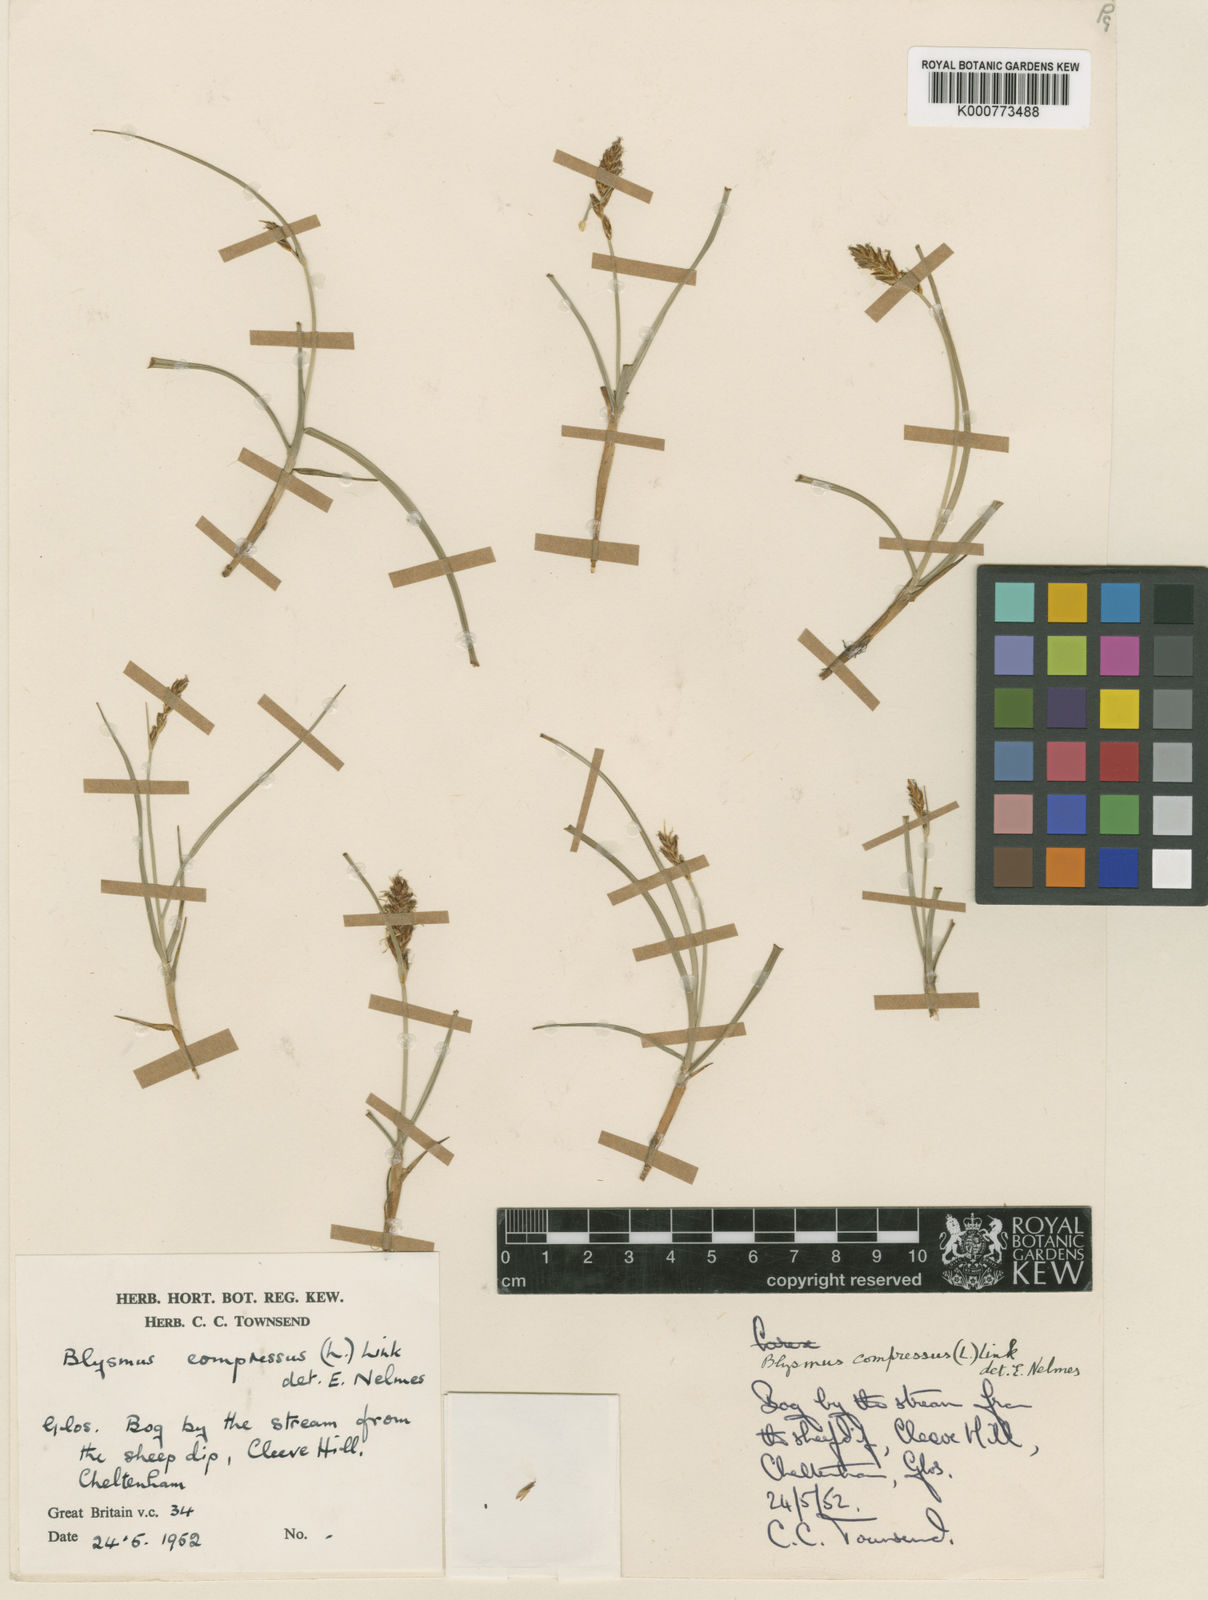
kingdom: Plantae
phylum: Tracheophyta
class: Liliopsida
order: Poales
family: Cyperaceae
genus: Blysmus
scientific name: Blysmus compressus
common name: Flat-sedge
